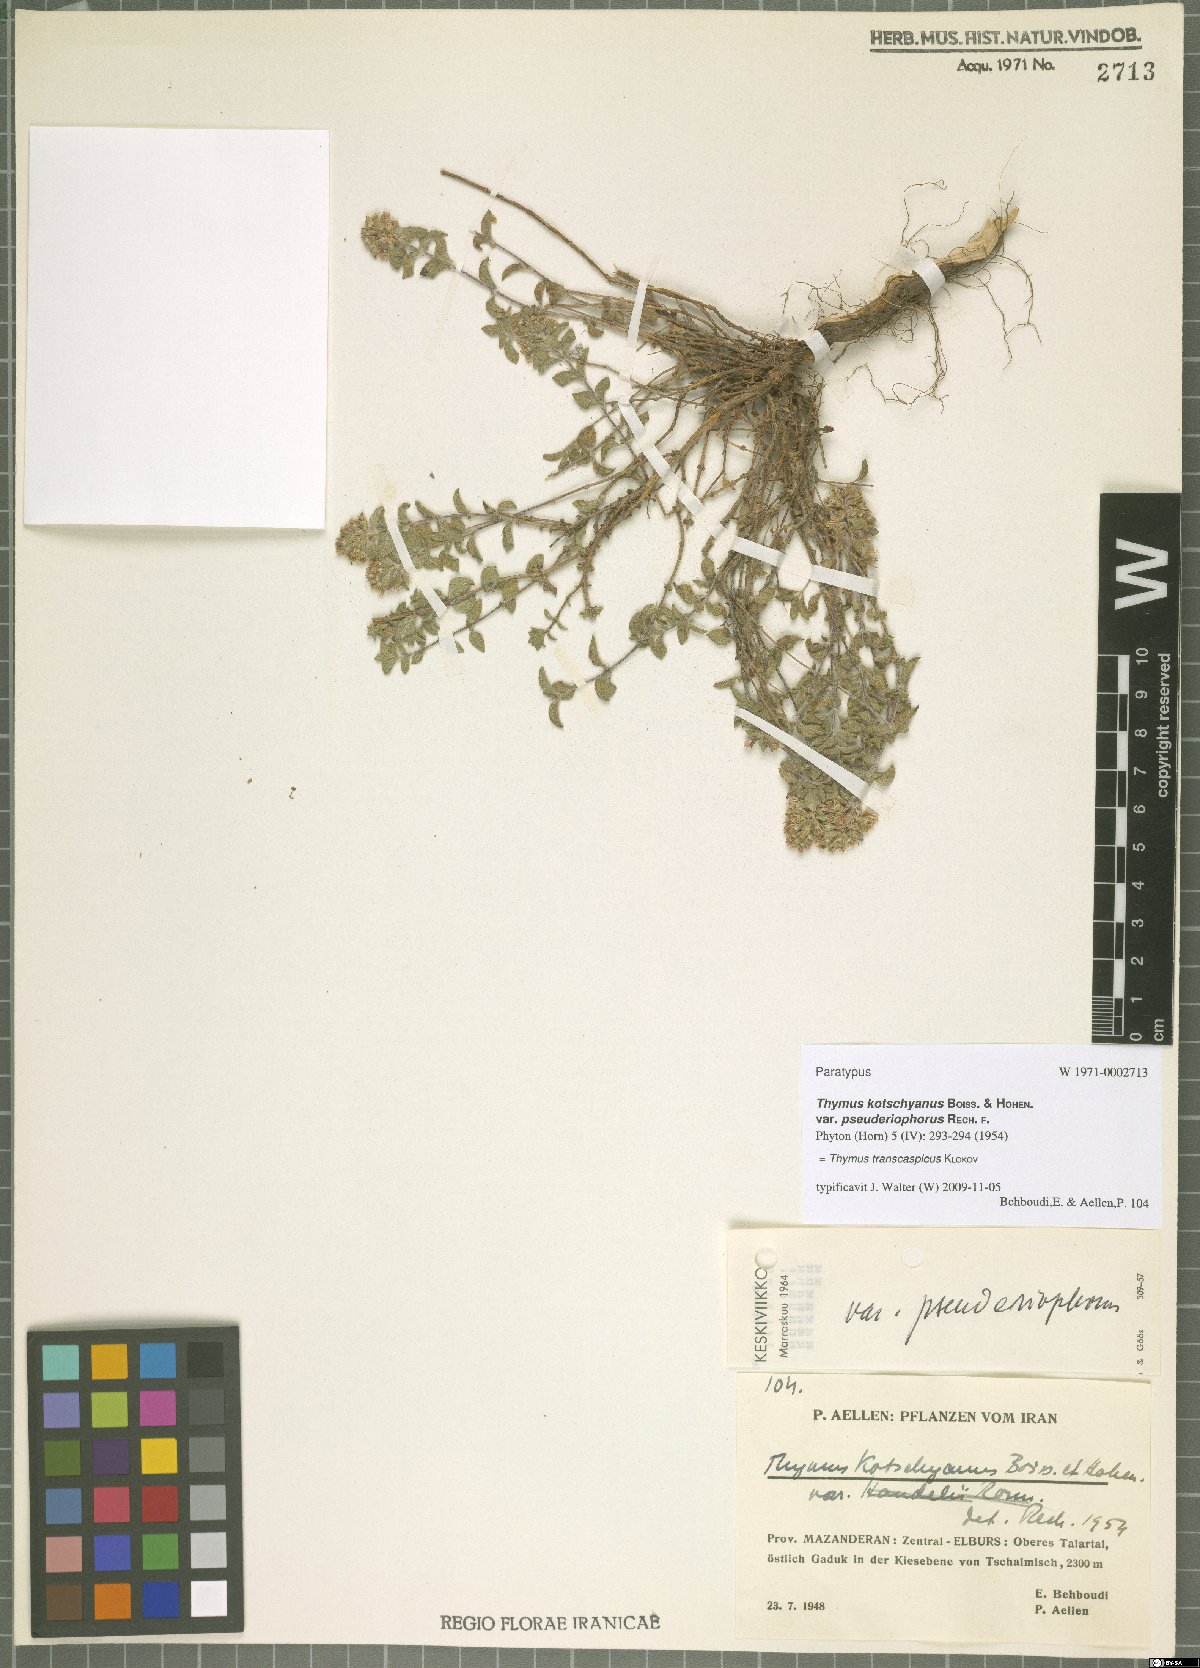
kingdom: Plantae
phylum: Tracheophyta
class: Magnoliopsida
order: Lamiales
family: Lamiaceae
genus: Thymus
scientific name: Thymus transcaspicus
